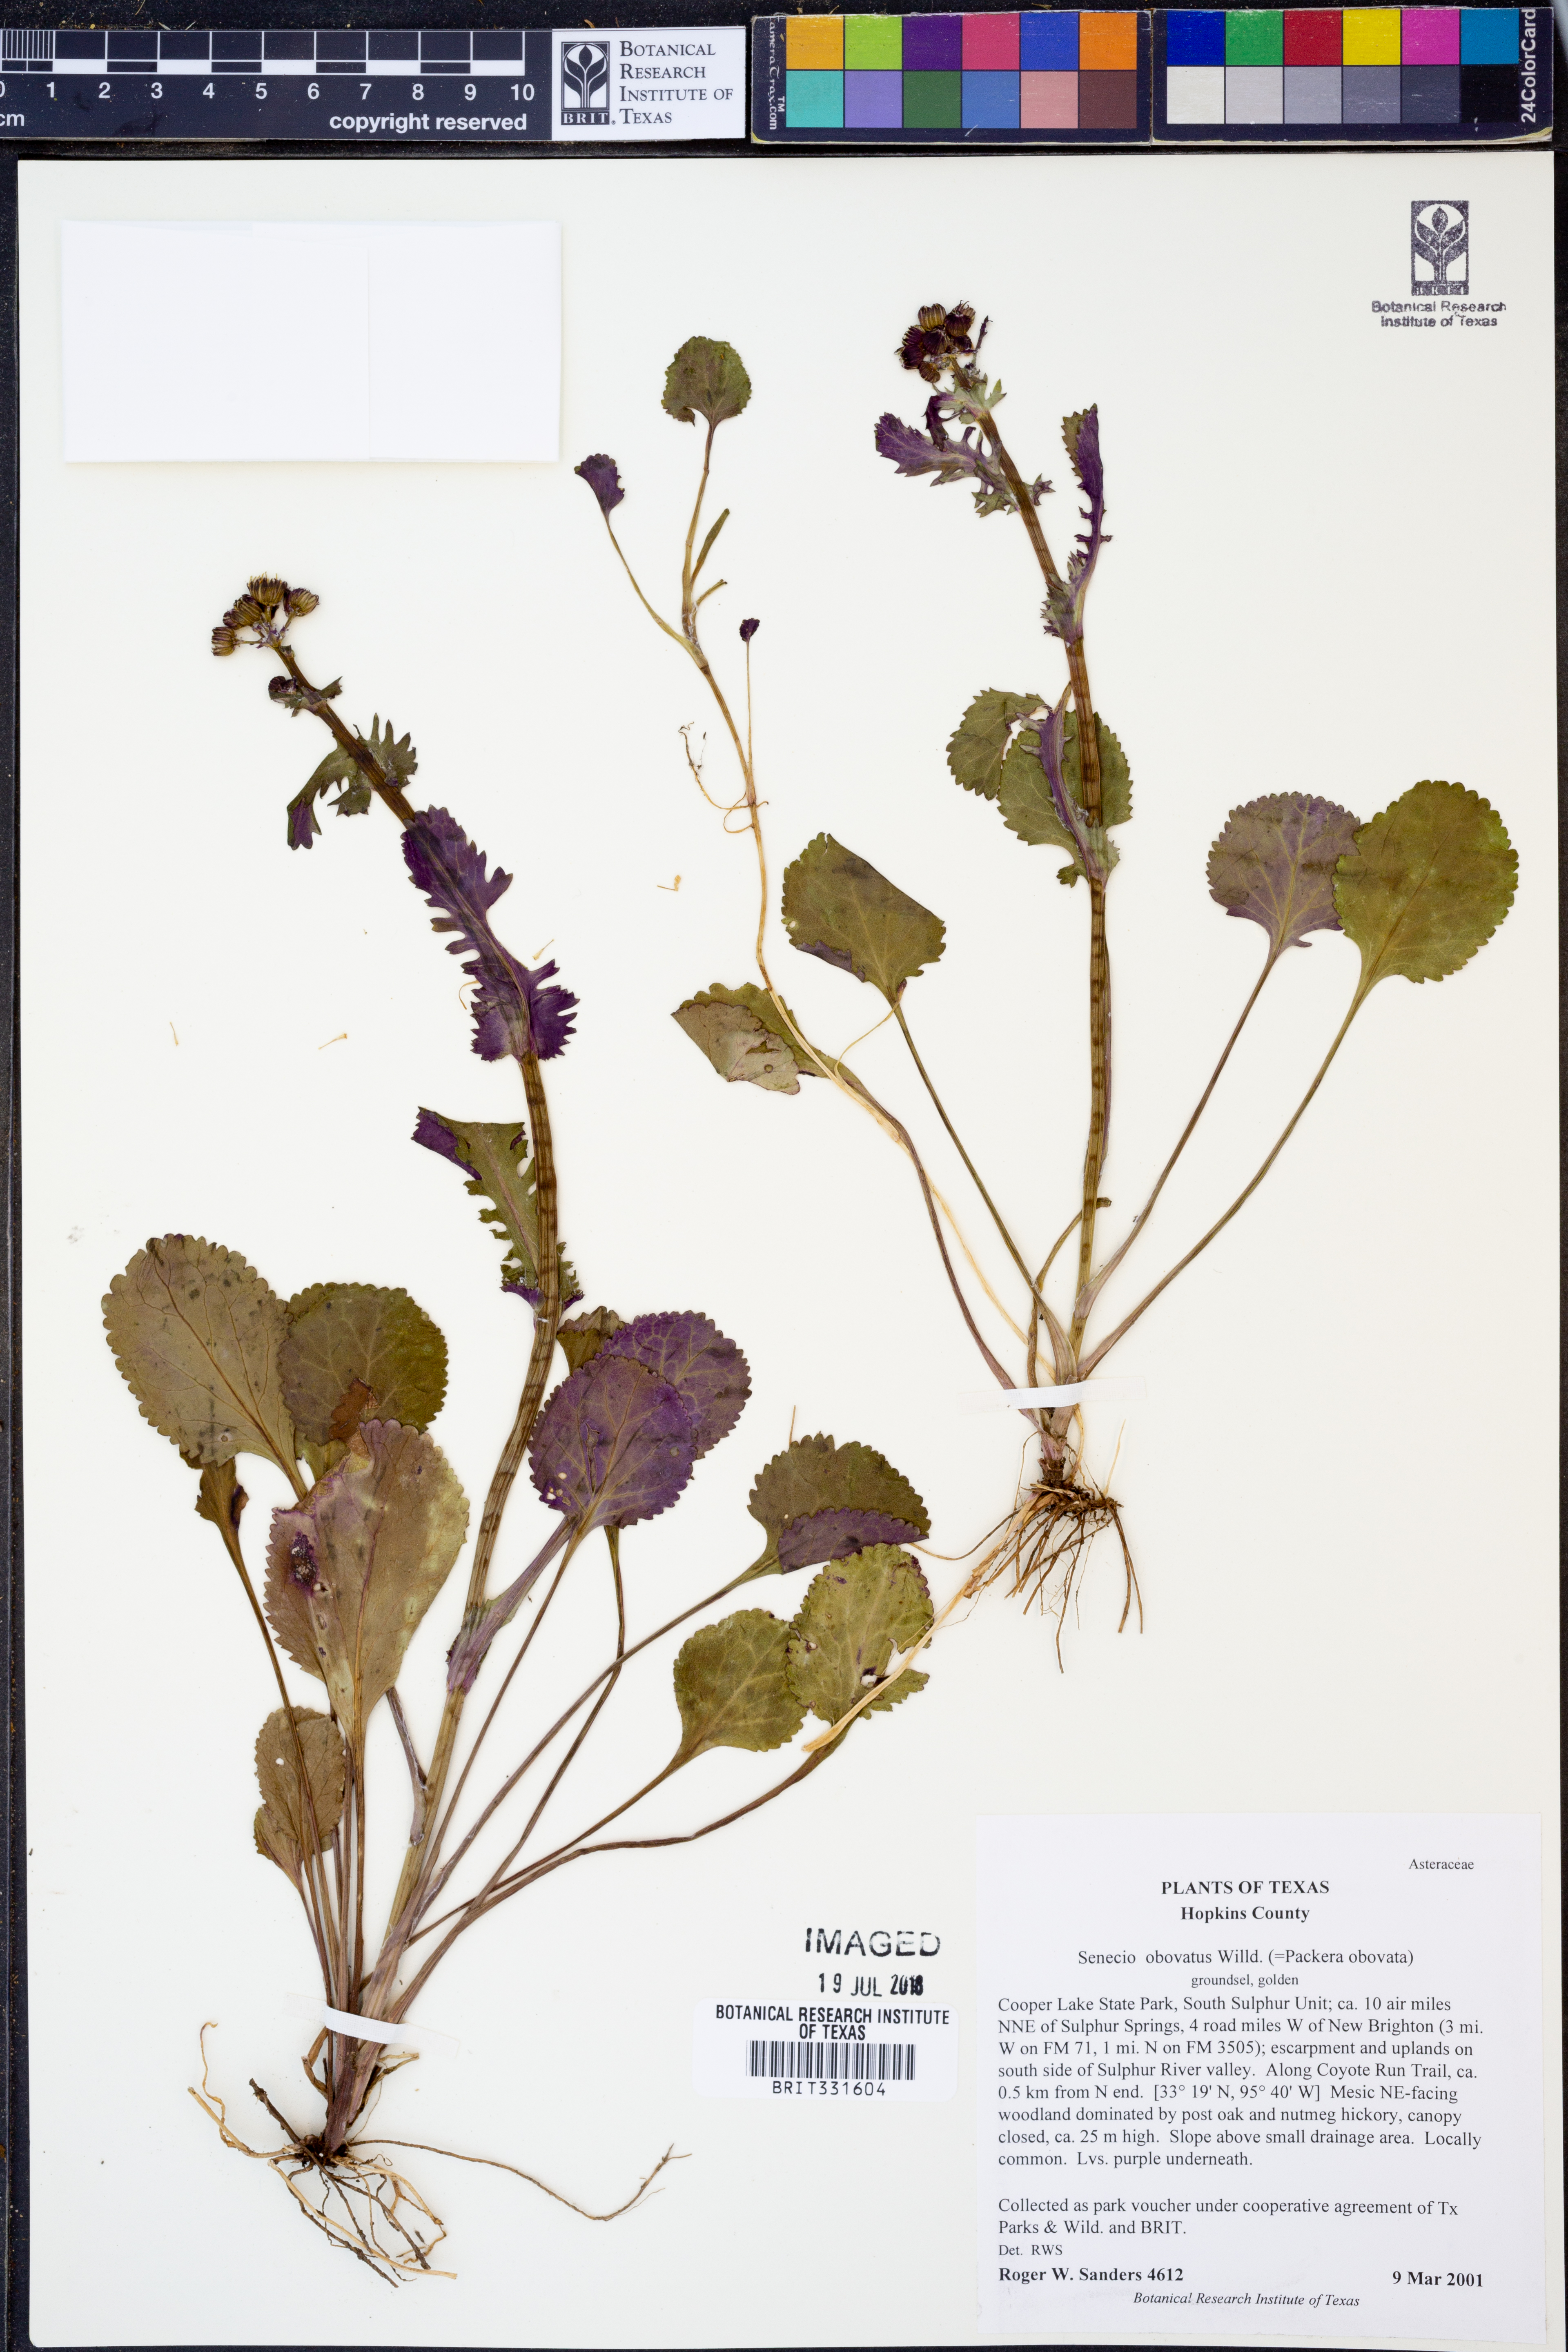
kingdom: Plantae
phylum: Tracheophyta
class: Magnoliopsida
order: Asterales
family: Asteraceae
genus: Packera
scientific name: Packera obovata
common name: Round-leaf ragwort
